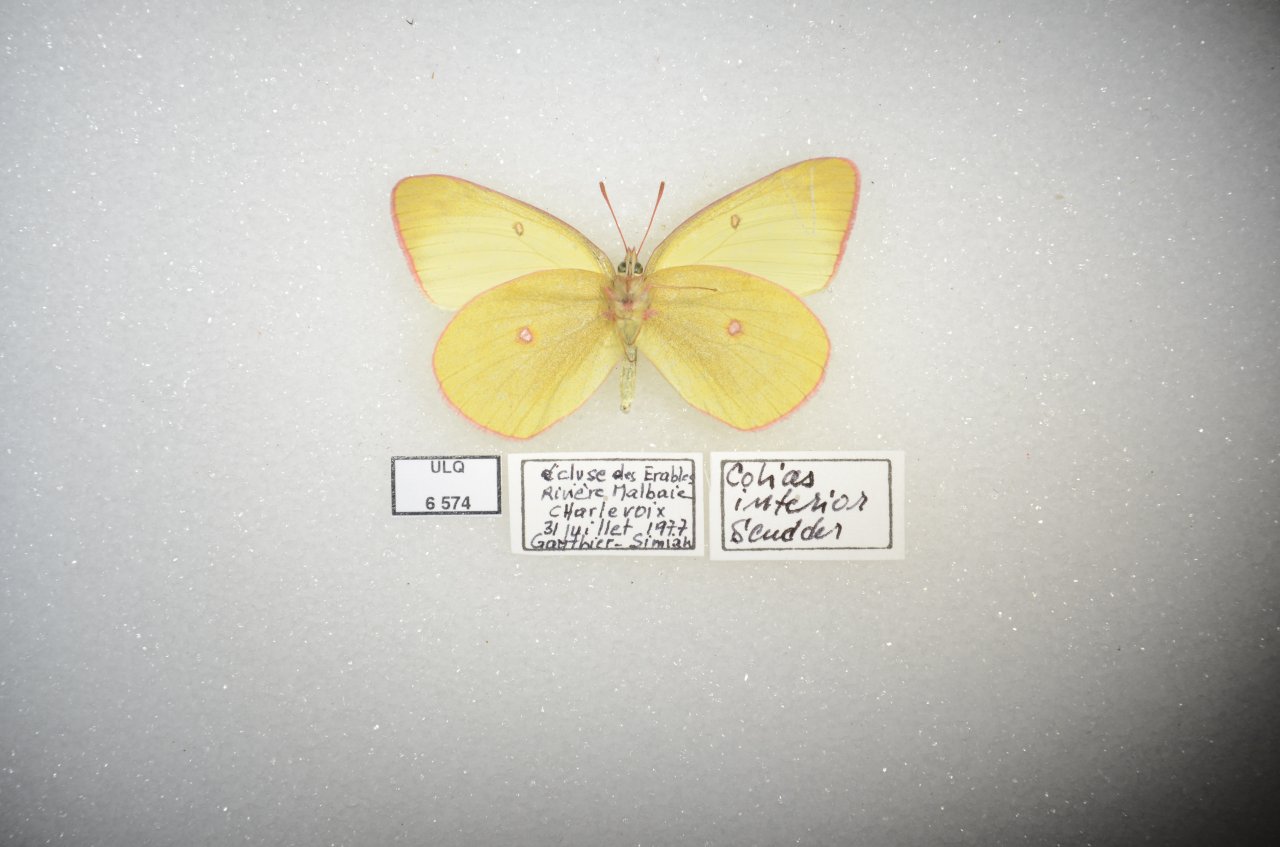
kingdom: Animalia
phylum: Arthropoda
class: Insecta
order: Lepidoptera
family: Pieridae
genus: Colias
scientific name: Colias interior
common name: Pink-edged Sulphur
